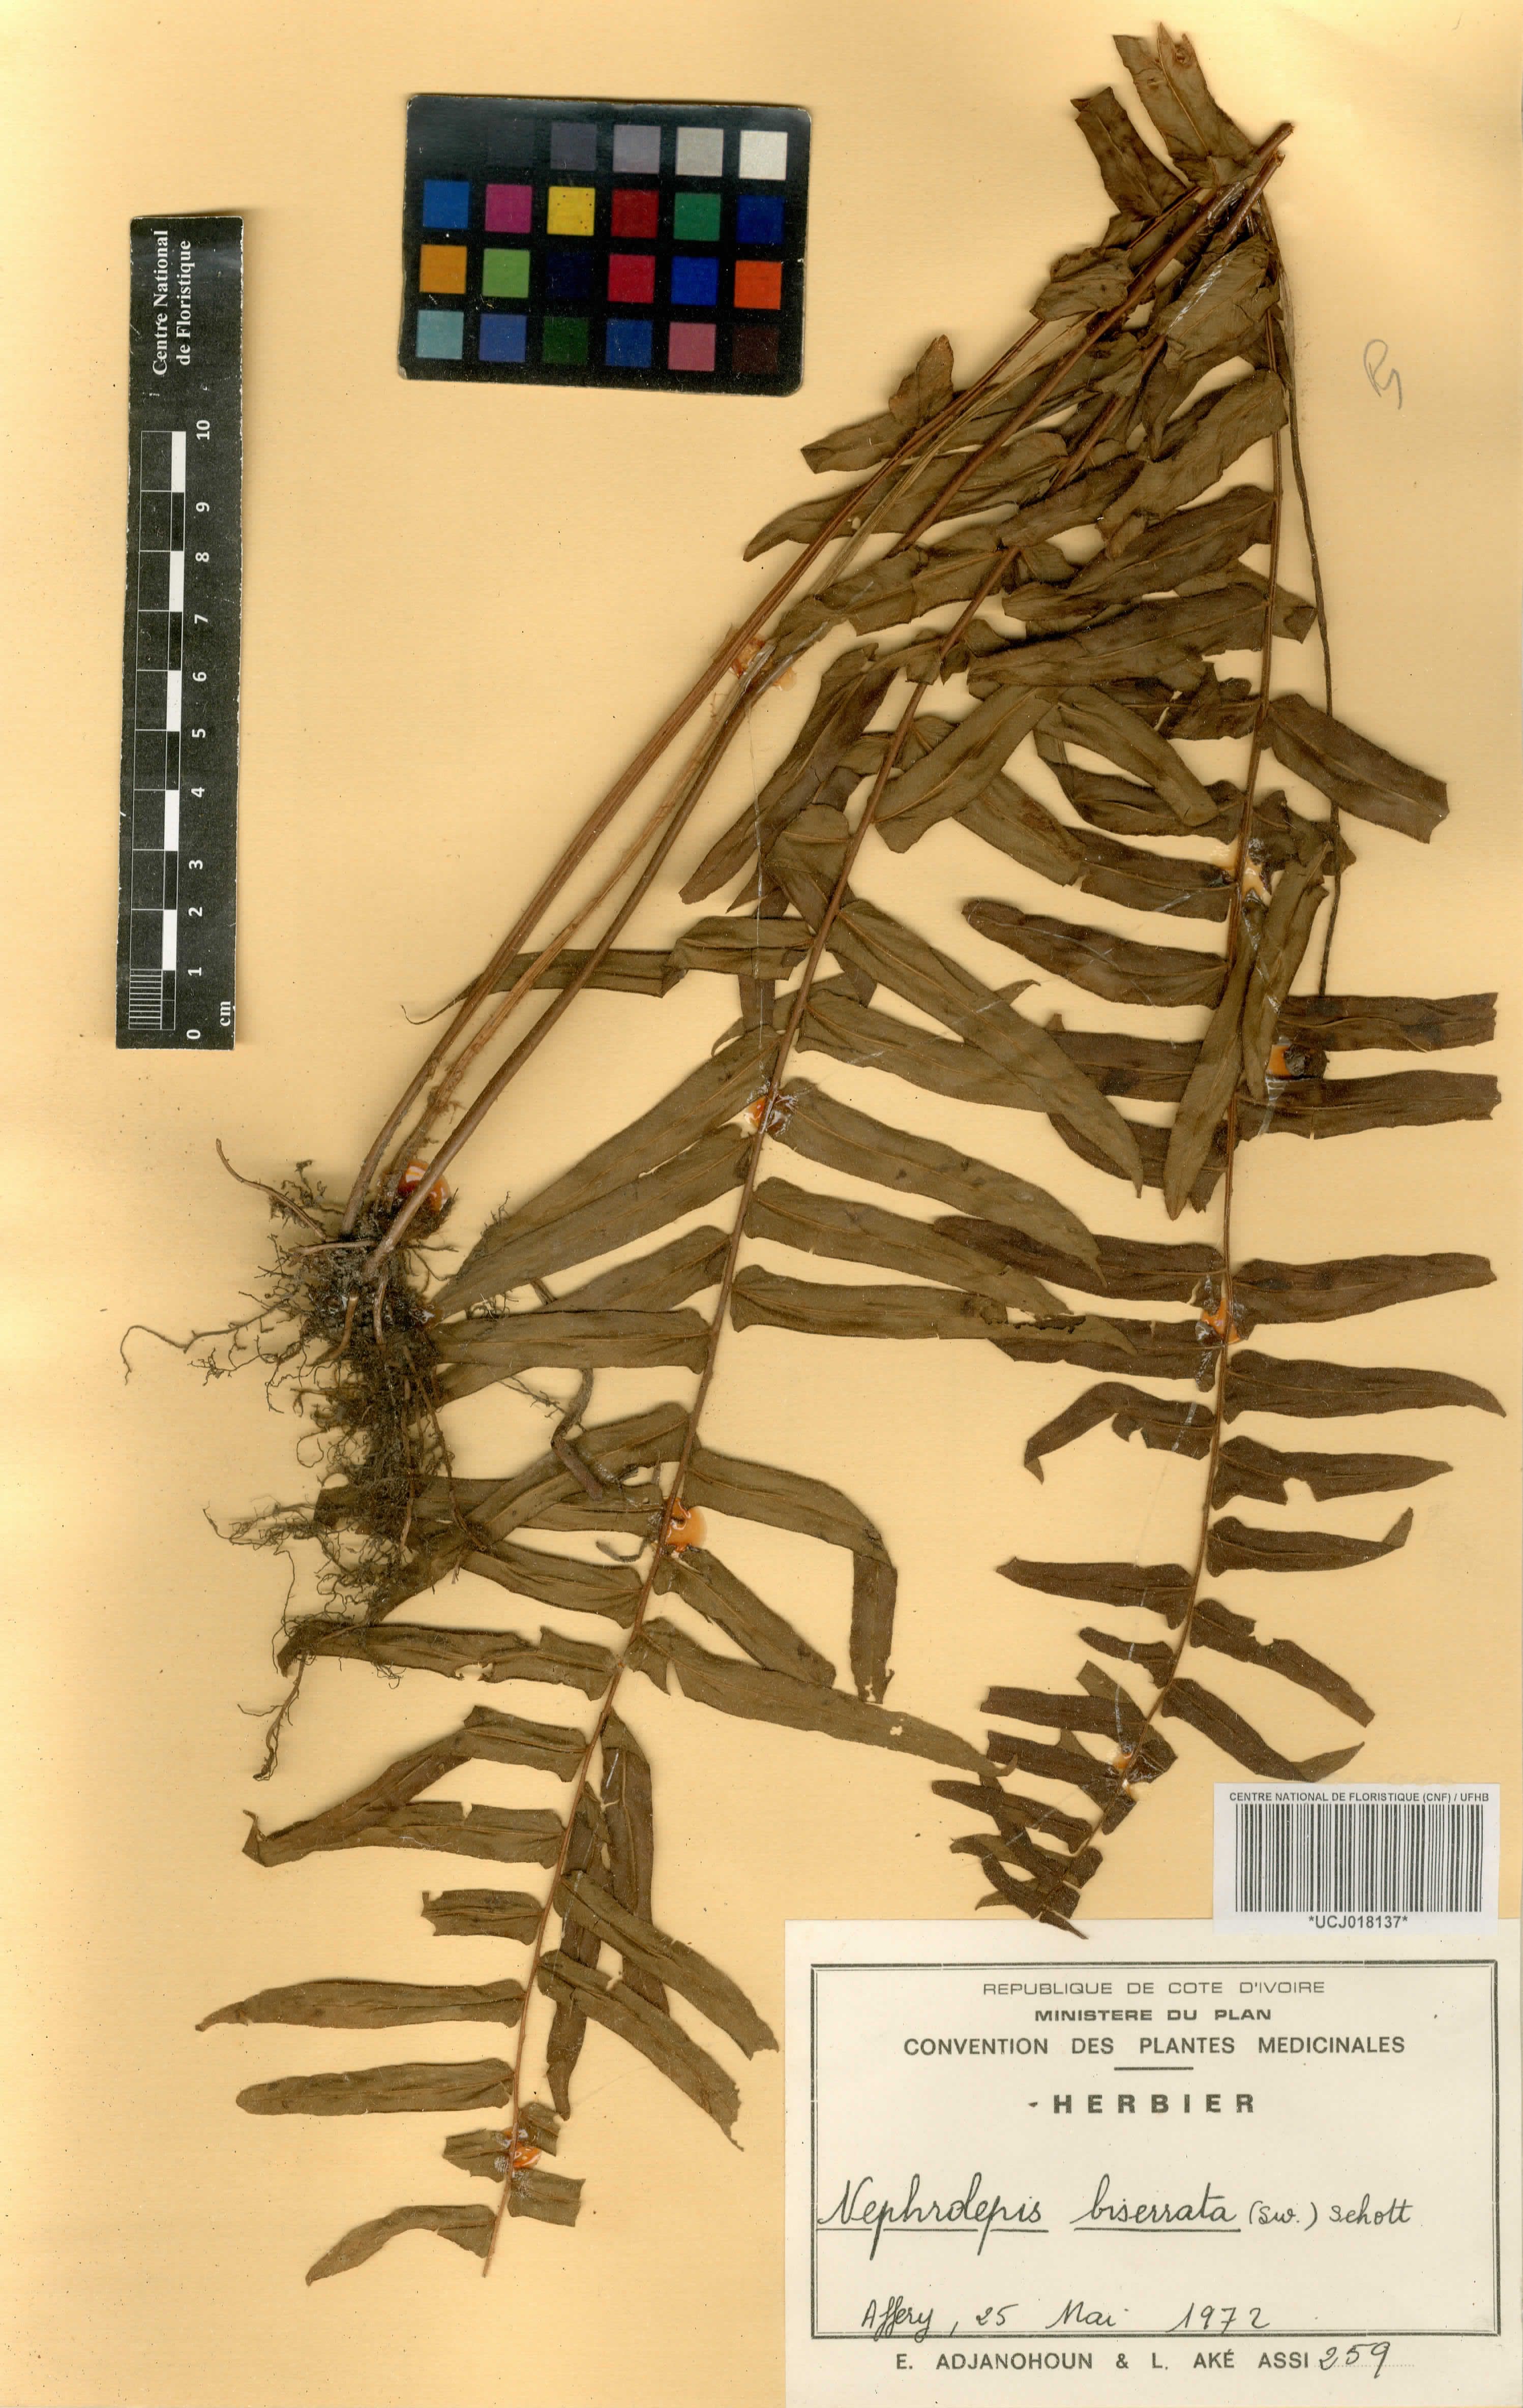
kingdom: Plantae
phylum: Tracheophyta
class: Polypodiopsida
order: Polypodiales
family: Nephrolepidaceae
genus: Nephrolepis
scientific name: Nephrolepis biserrata
